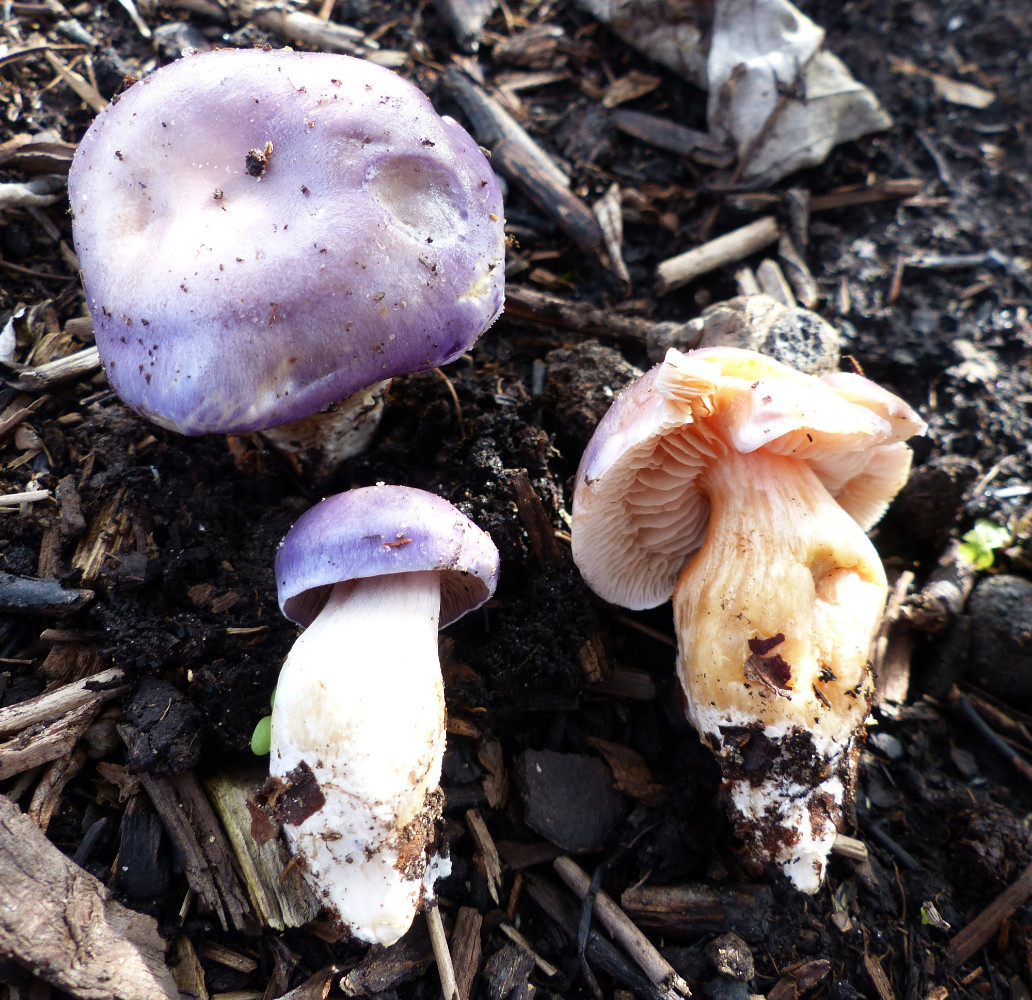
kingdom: Fungi
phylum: Basidiomycota
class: Agaricomycetes
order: Agaricales
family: Cortinariaceae
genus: Thaxterogaster
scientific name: Thaxterogaster croceocoeruleus
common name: blågullig slørhat
